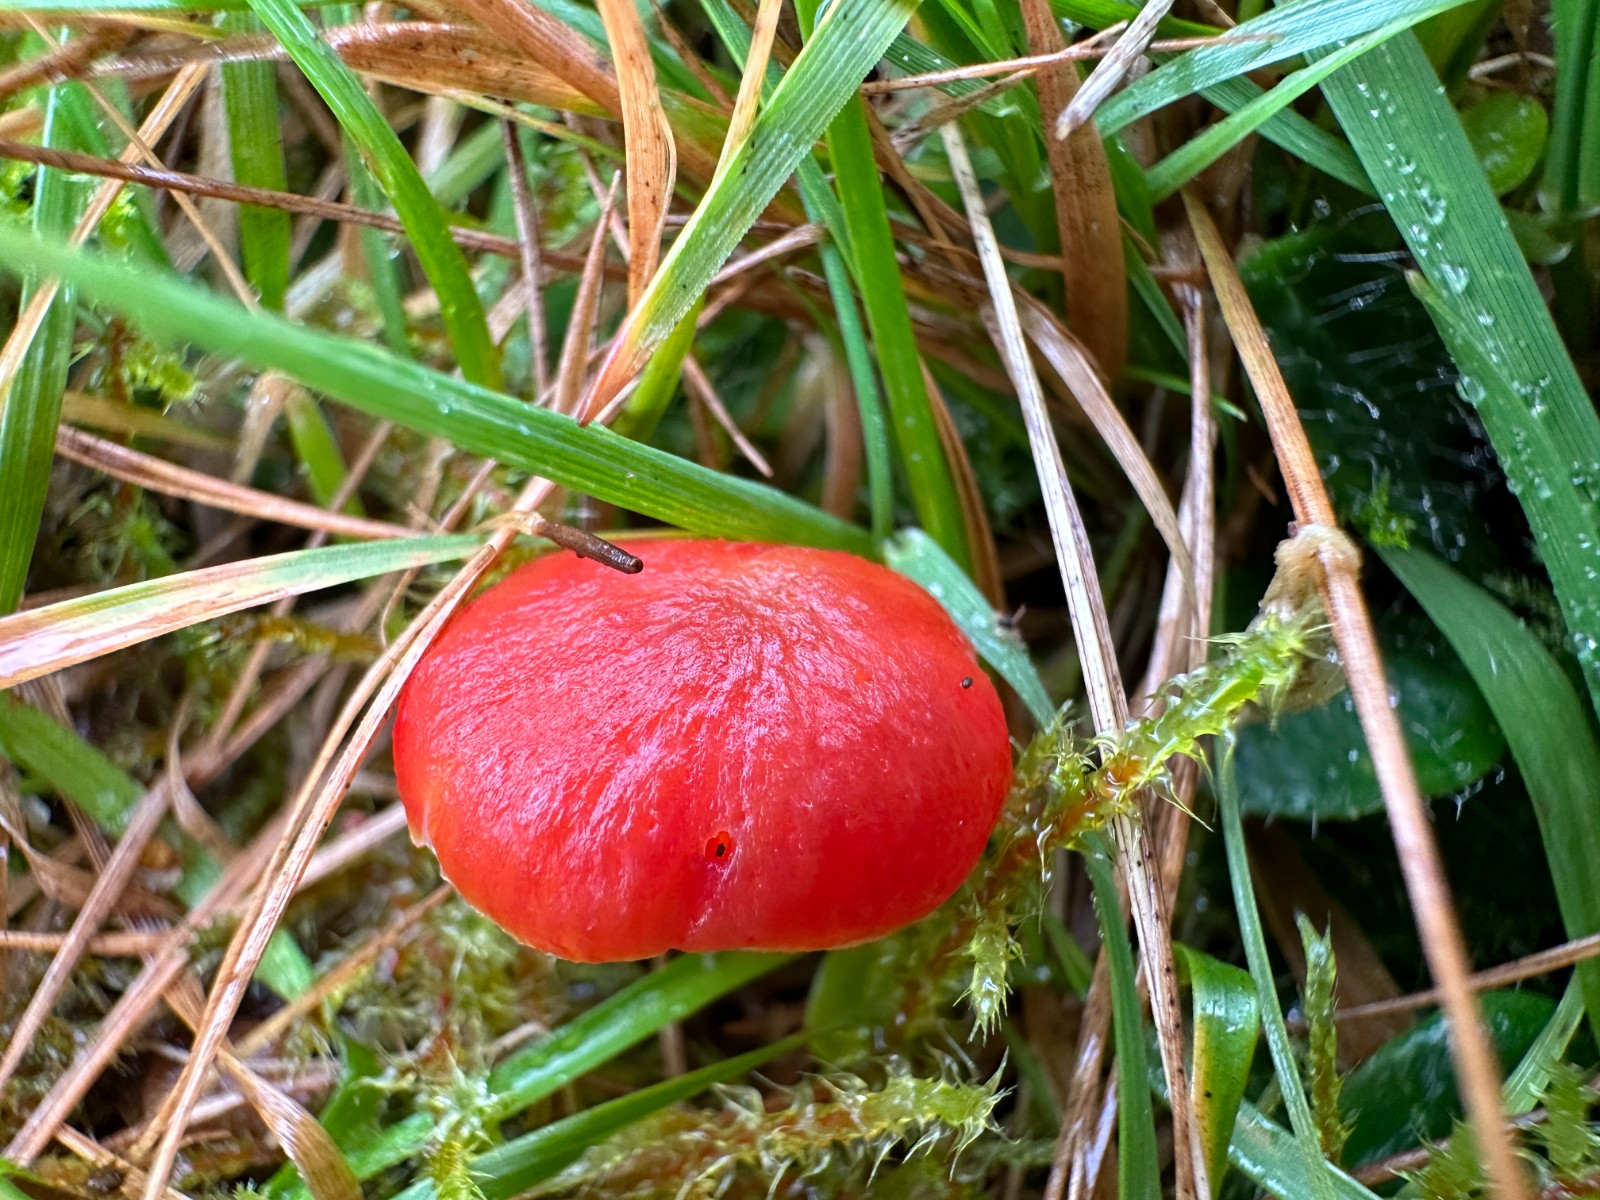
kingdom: Fungi
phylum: Basidiomycota
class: Agaricomycetes
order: Agaricales
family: Hygrophoraceae
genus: Hygrocybe
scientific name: Hygrocybe phaeococcinea
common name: sortdugget vokshat
